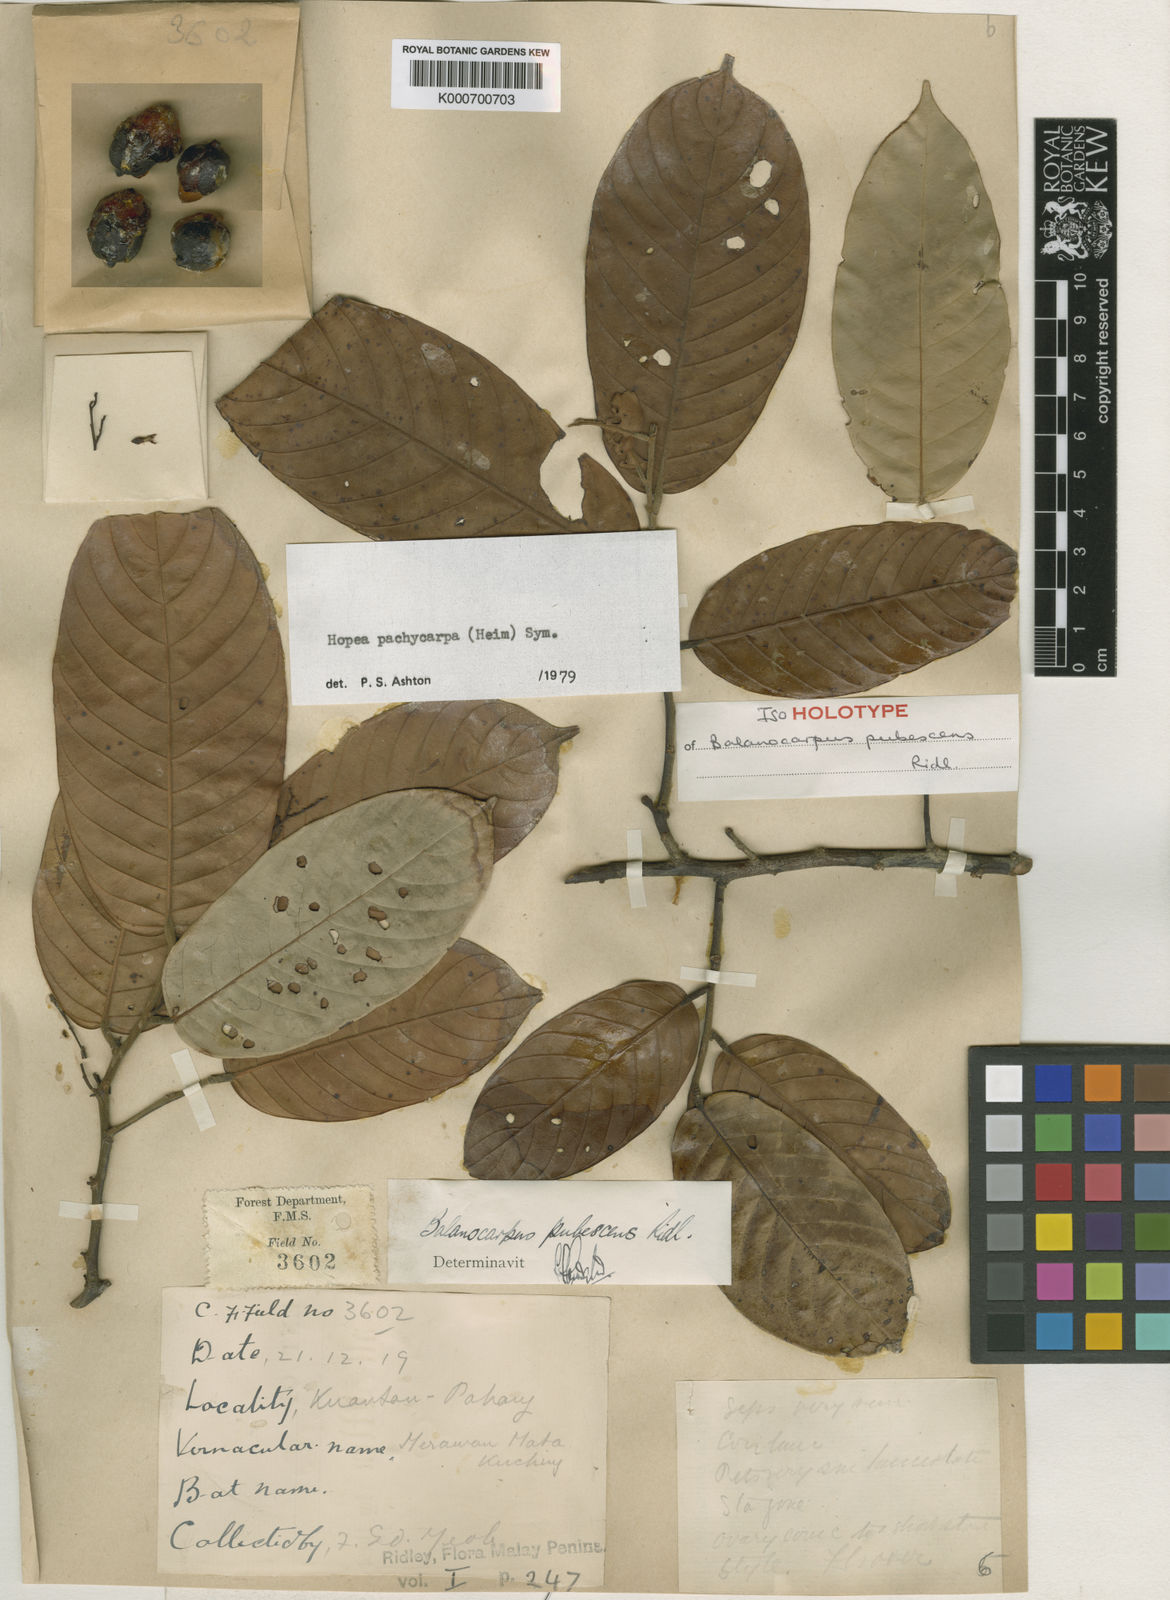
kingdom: Plantae
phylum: Tracheophyta
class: Magnoliopsida
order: Malvales
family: Dipterocarpaceae
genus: Hopea
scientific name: Hopea pachycarpa
